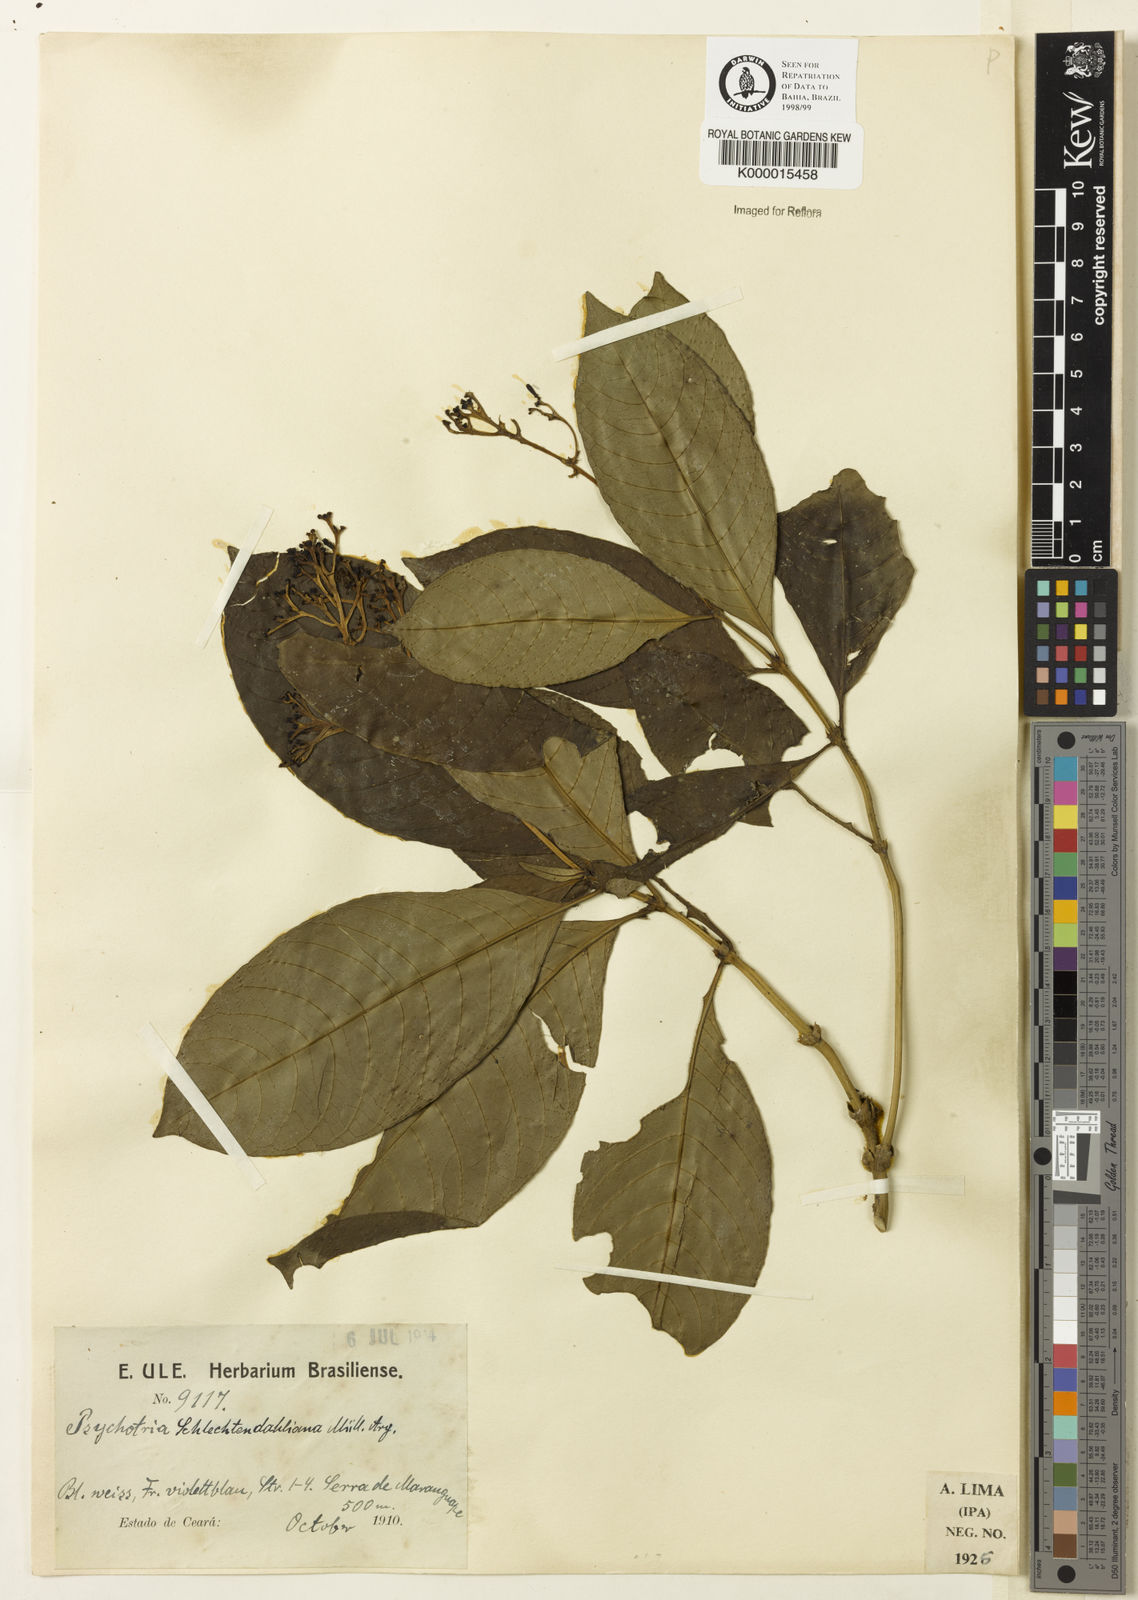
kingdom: Plantae
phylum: Tracheophyta
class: Magnoliopsida
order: Gentianales
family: Rubiaceae
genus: Palicourea
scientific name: Palicourea divaricata
